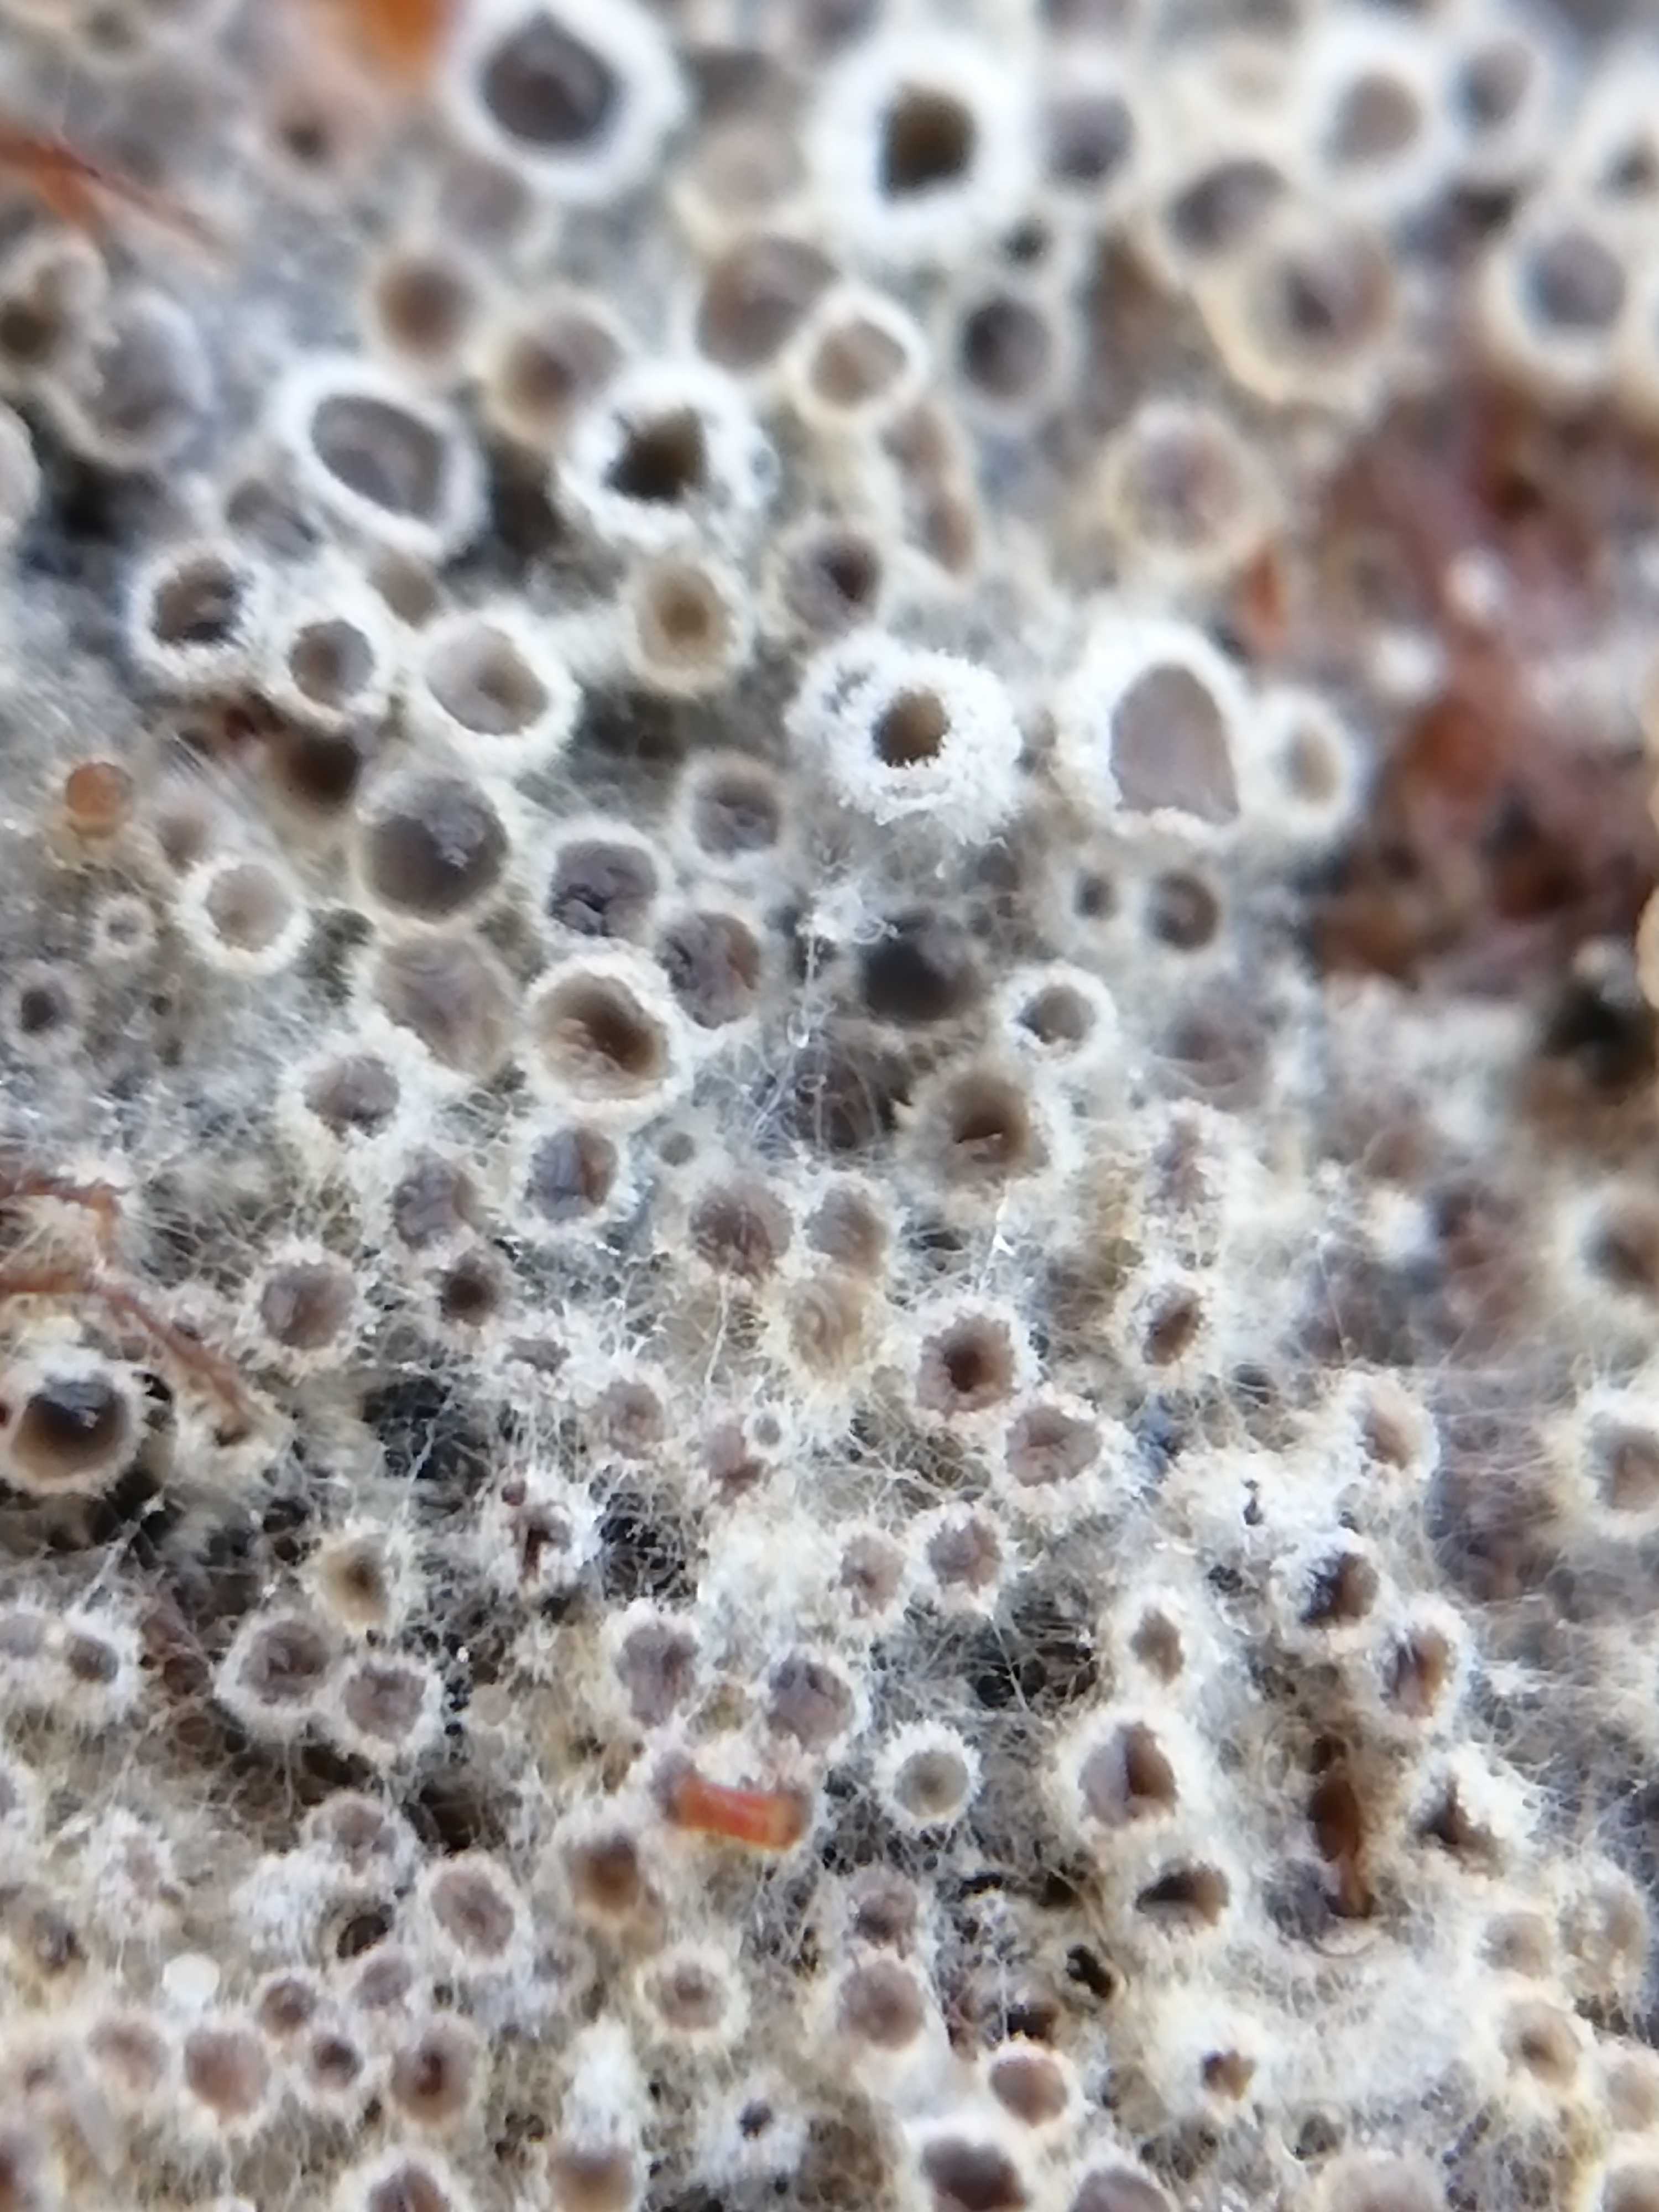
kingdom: Fungi
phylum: Ascomycota
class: Leotiomycetes
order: Helotiales
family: Arachnopezizaceae
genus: Eriopezia
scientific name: Eriopezia caesia
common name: ege-spindskive
